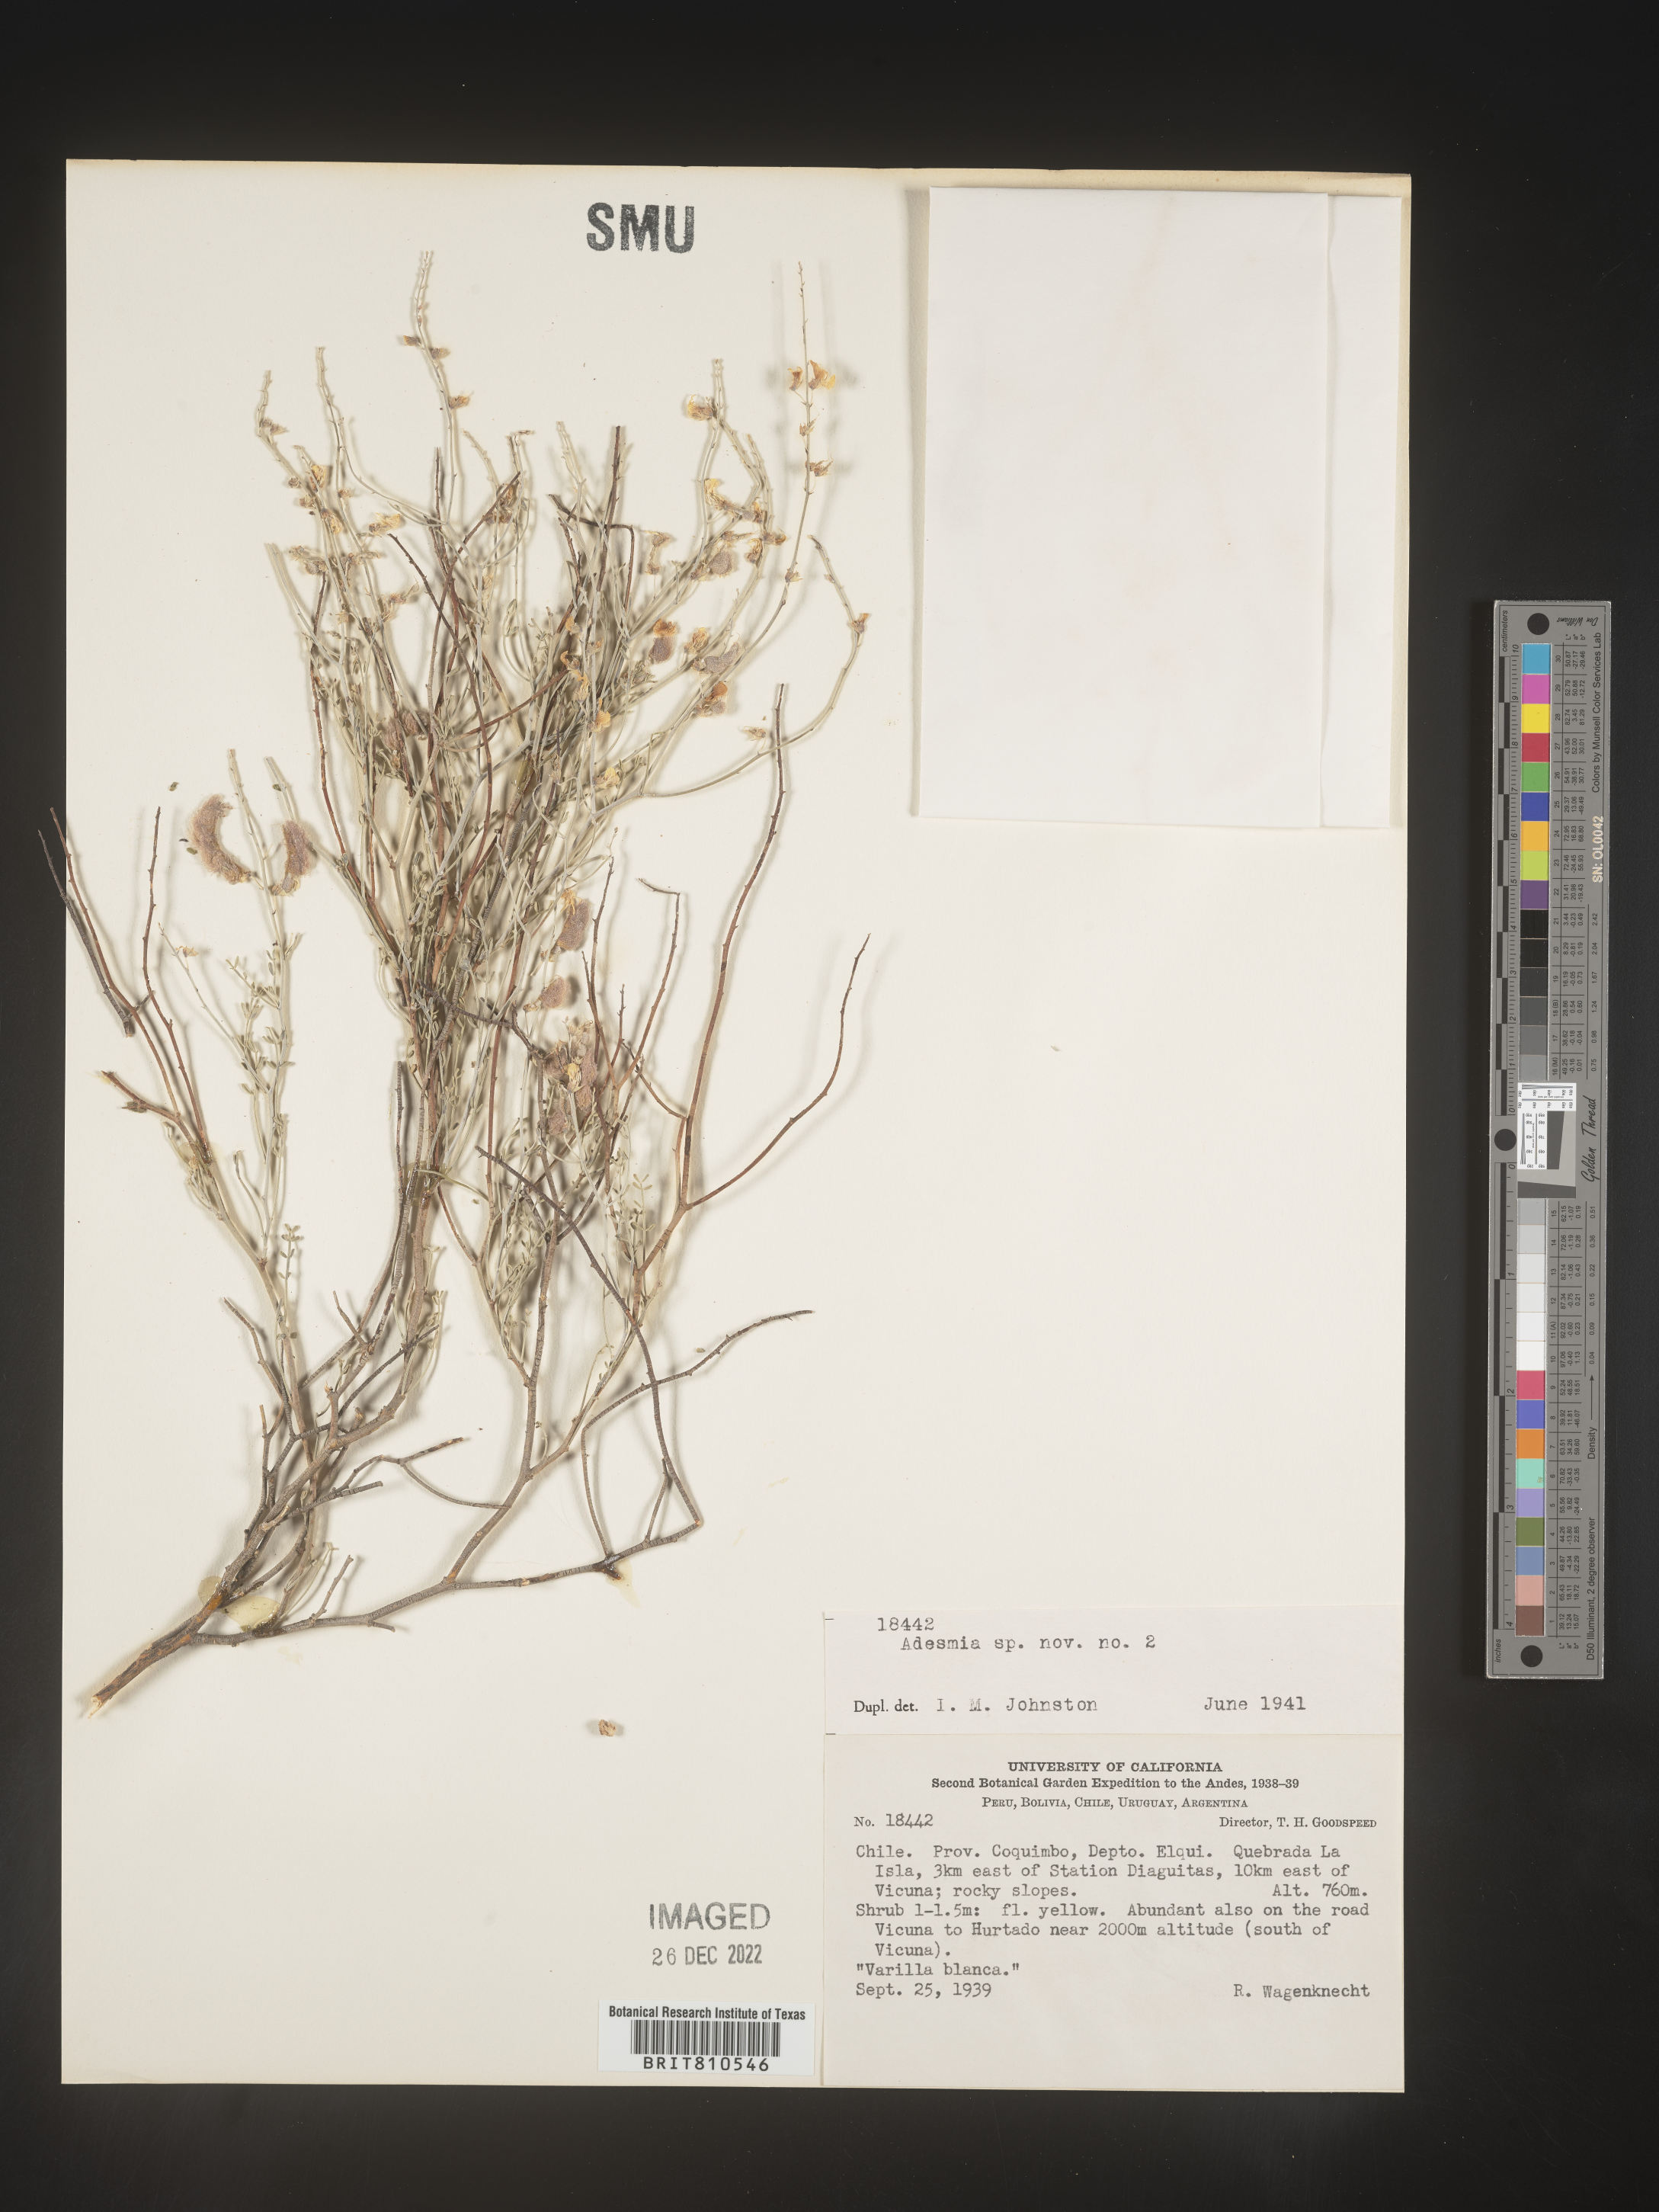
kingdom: Plantae
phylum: Tracheophyta
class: Magnoliopsida
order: Fabales
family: Fabaceae
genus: Adesmia
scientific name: Adesmia
